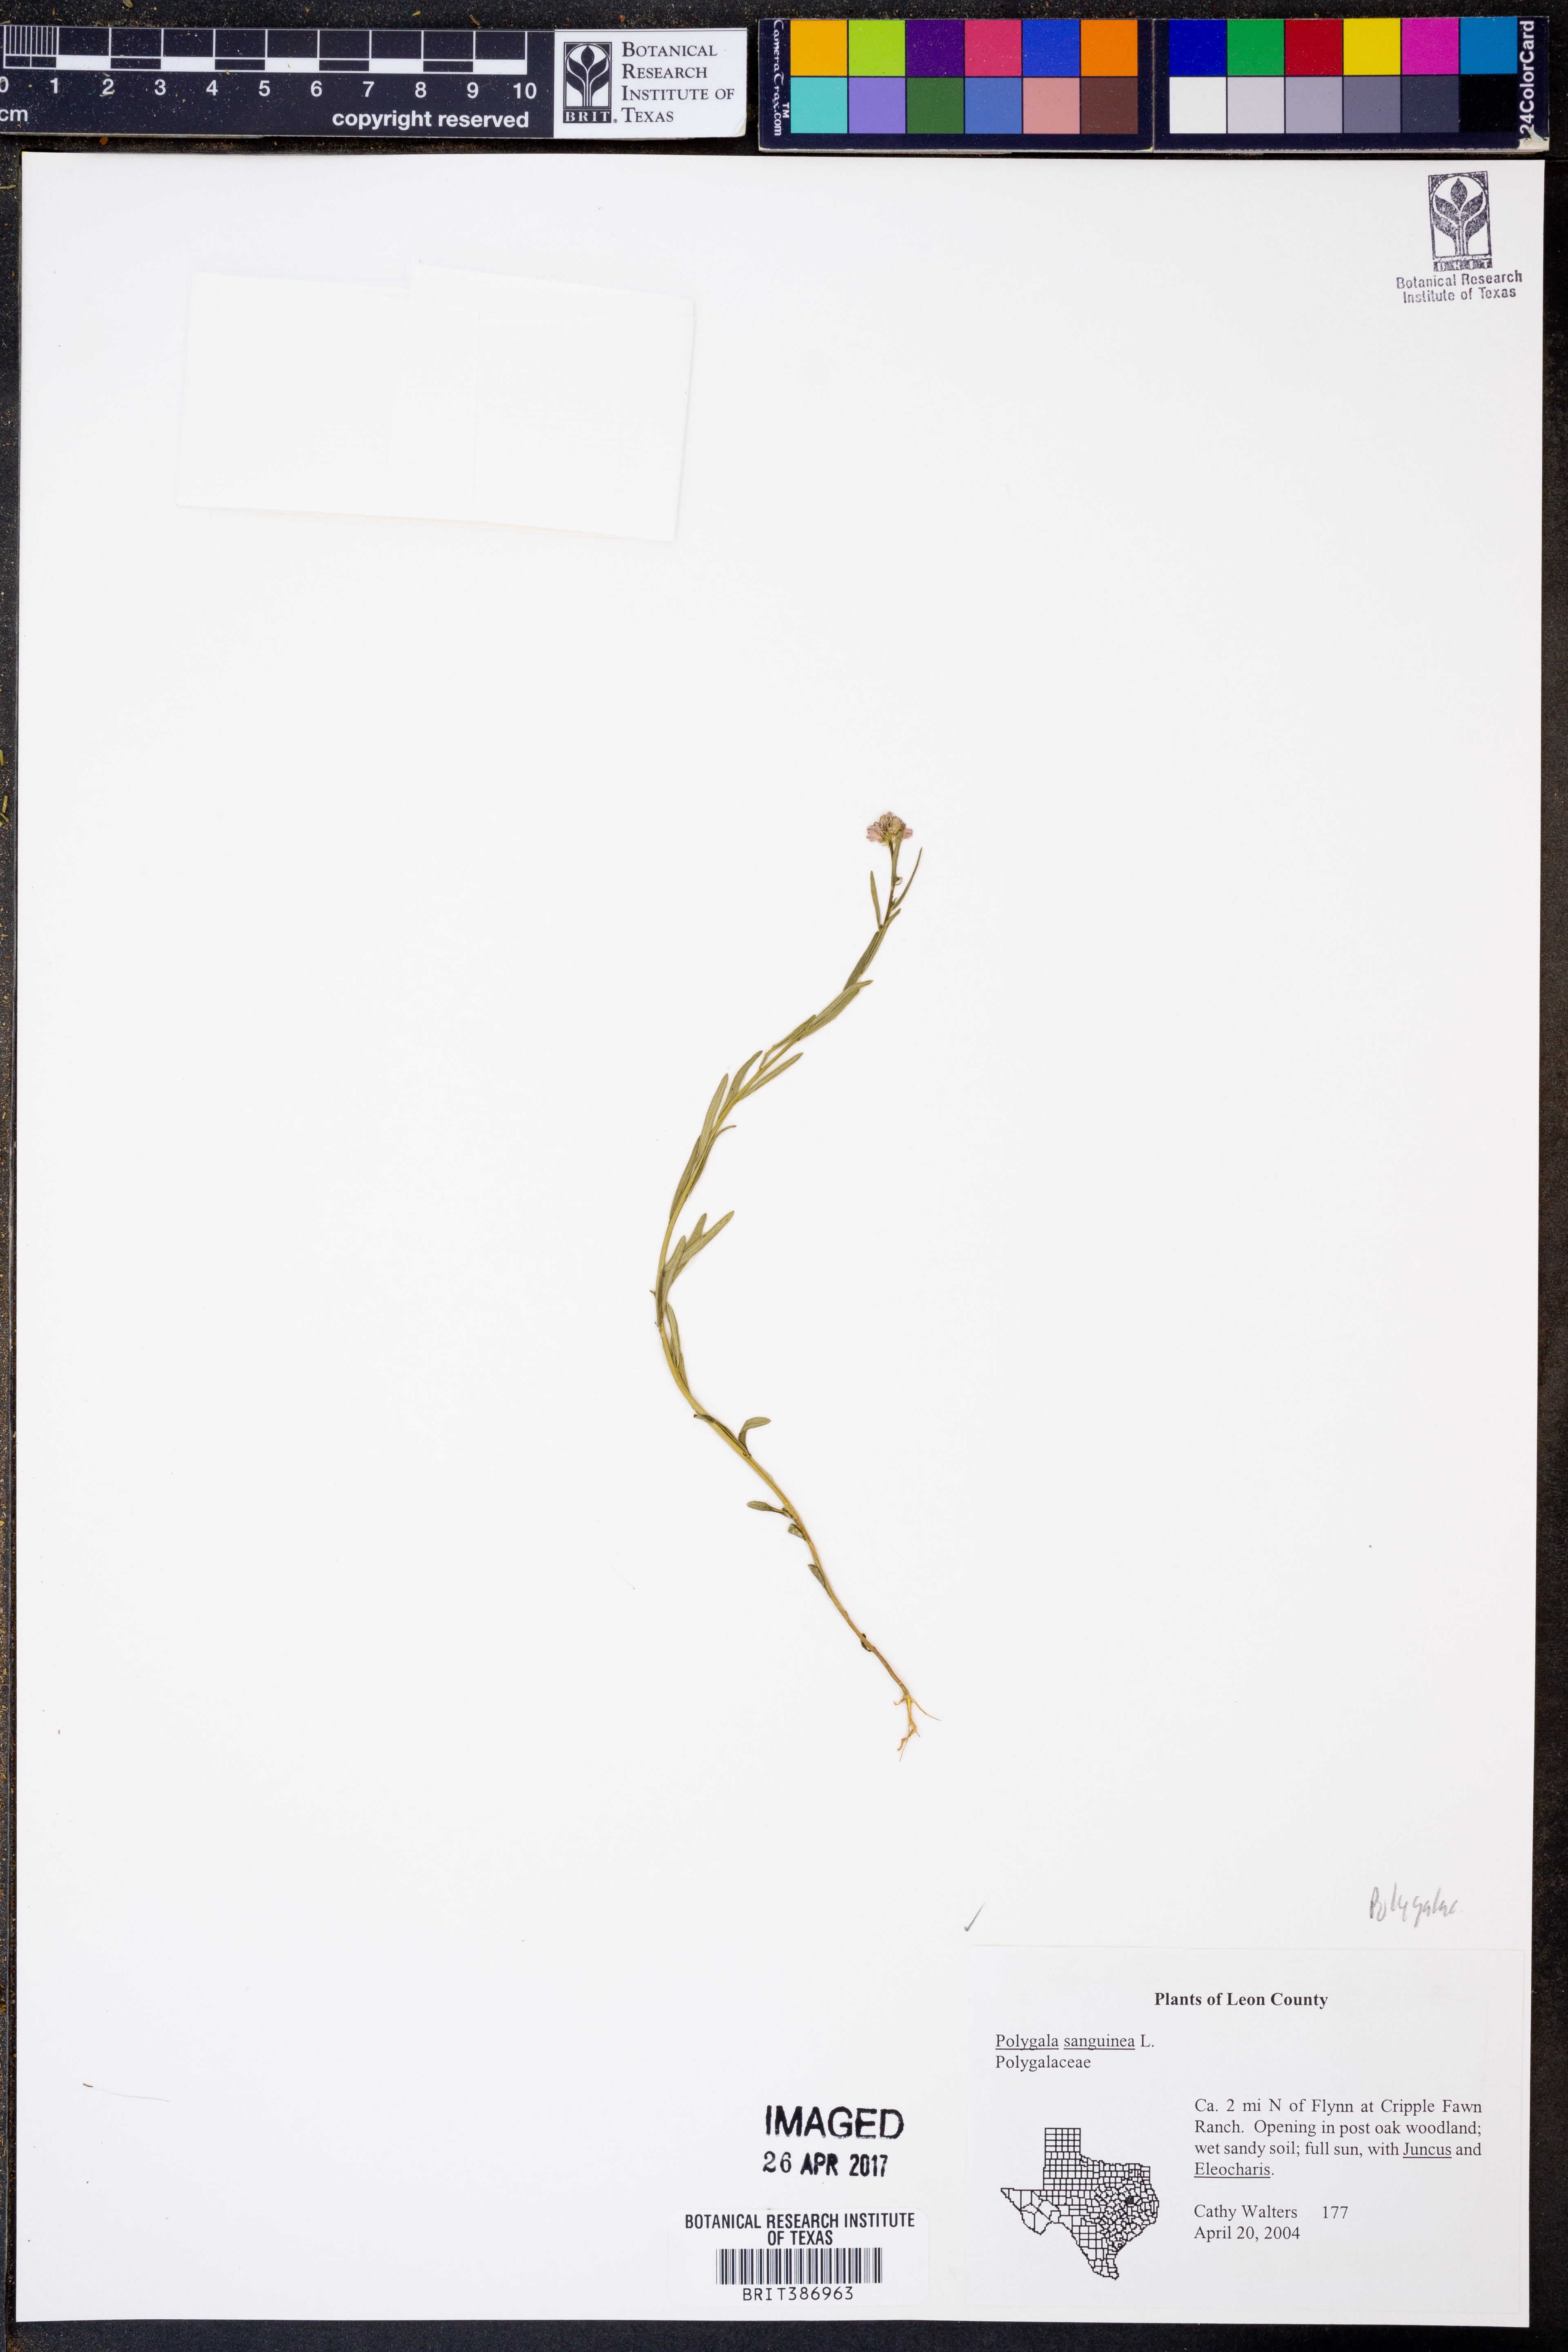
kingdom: Plantae
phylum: Tracheophyta
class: Magnoliopsida
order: Fabales
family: Polygalaceae
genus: Polygala
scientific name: Polygala sanguinea
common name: Blood milkwort
